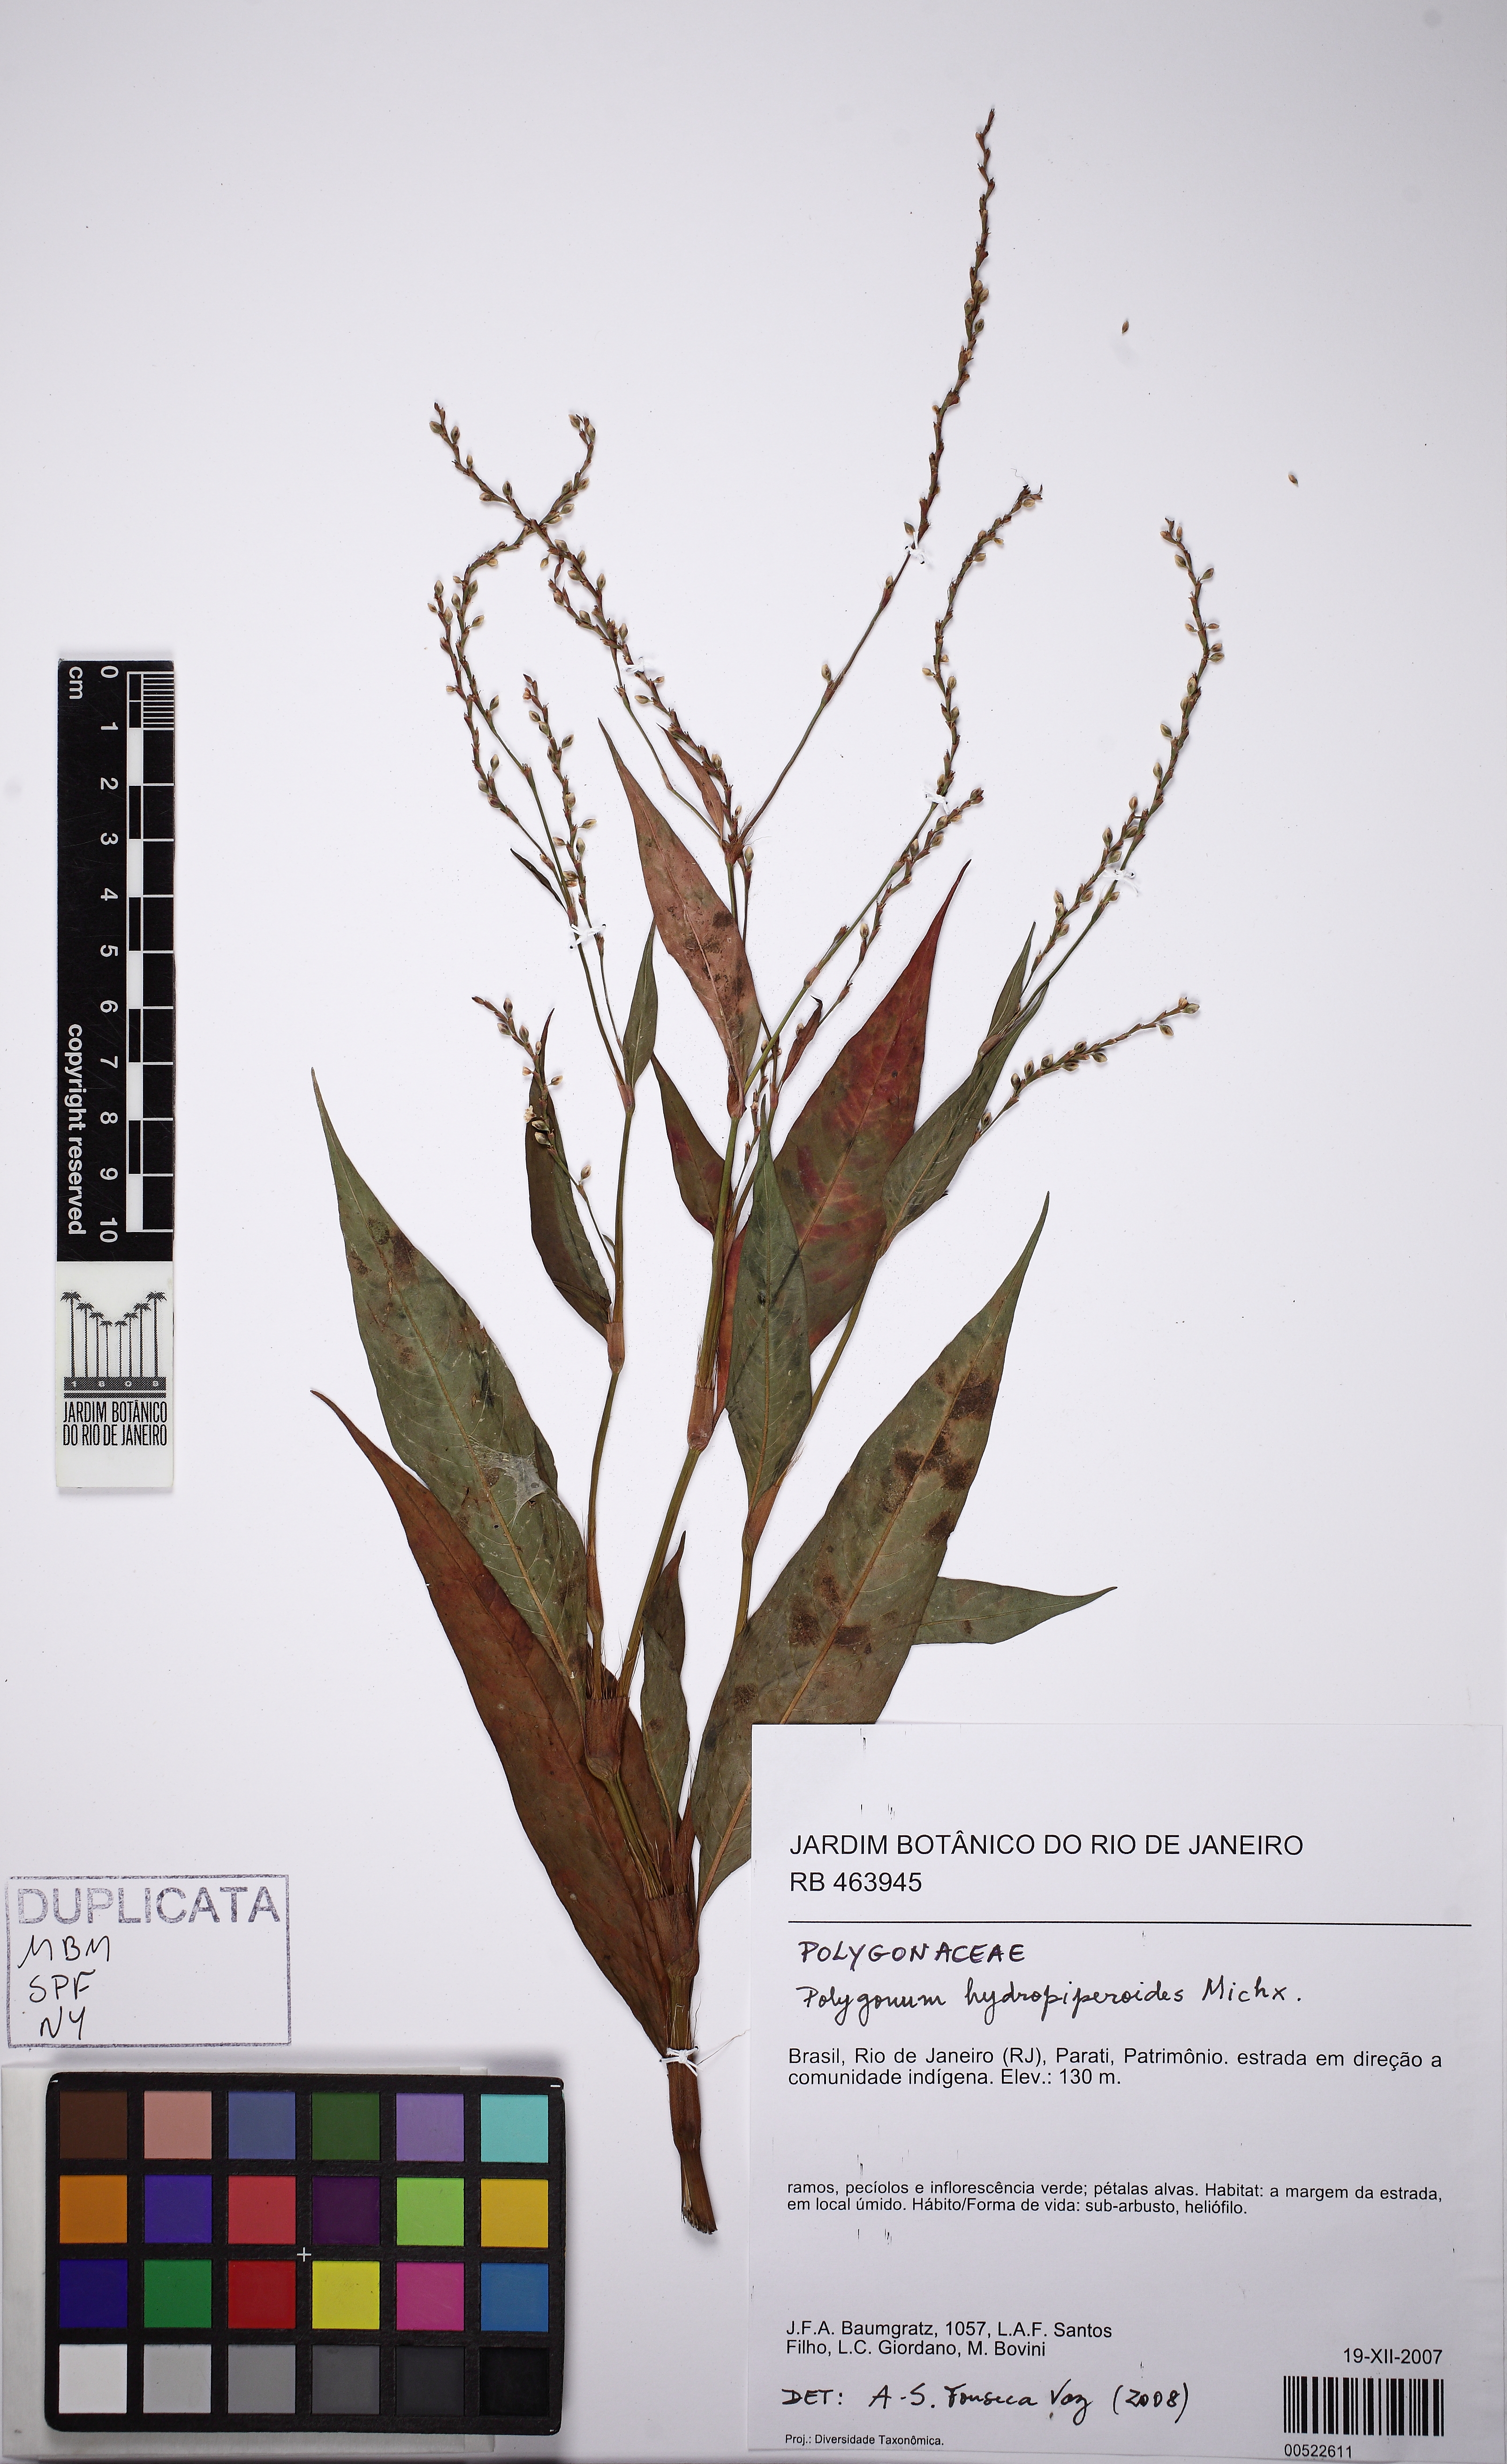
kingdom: Plantae
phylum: Tracheophyta
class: Magnoliopsida
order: Caryophyllales
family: Polygonaceae
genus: Persicaria
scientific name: Persicaria hydropiperoides
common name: Swamp smartweed
